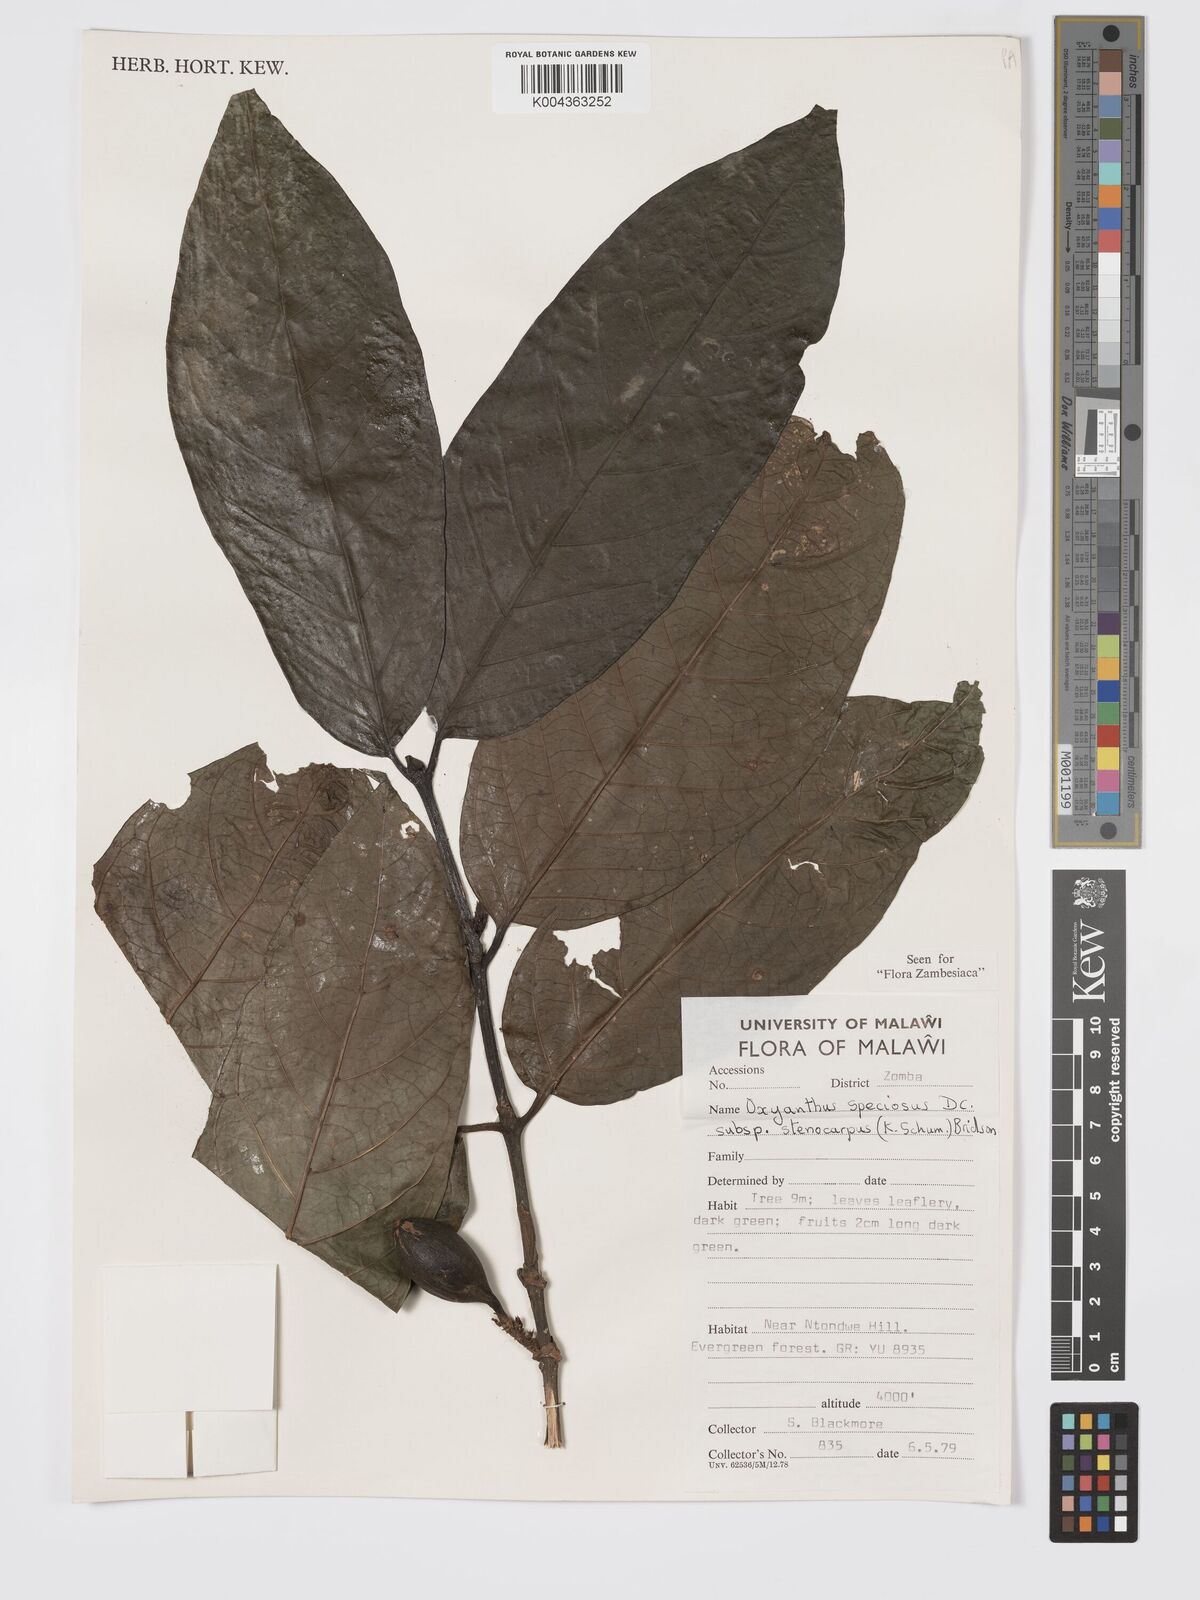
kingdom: Plantae
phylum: Tracheophyta
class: Magnoliopsida
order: Gentianales
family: Rubiaceae
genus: Oxyanthus
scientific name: Oxyanthus speciosus
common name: Whipstick loquat
